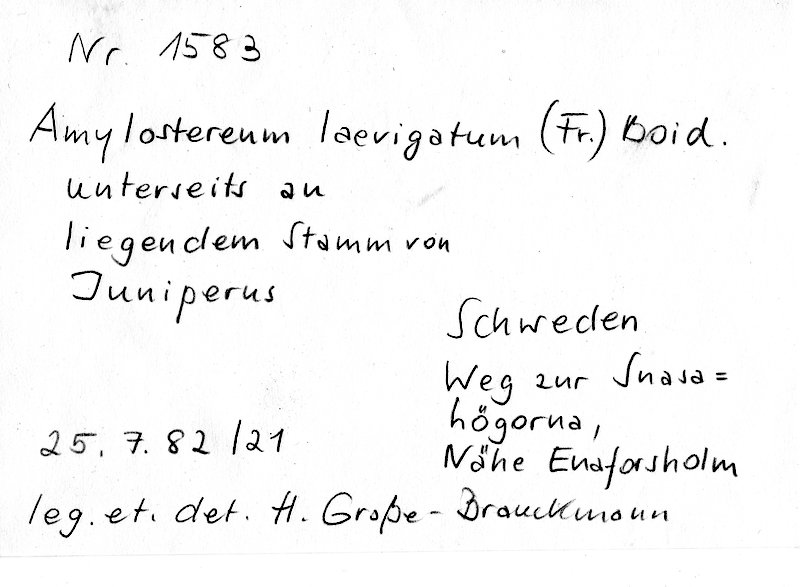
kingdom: Fungi
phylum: Basidiomycota
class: Agaricomycetes
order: Russulales
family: Echinodontiaceae
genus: Amylostereum
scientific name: Amylostereum laevigatum
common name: Yew duster
